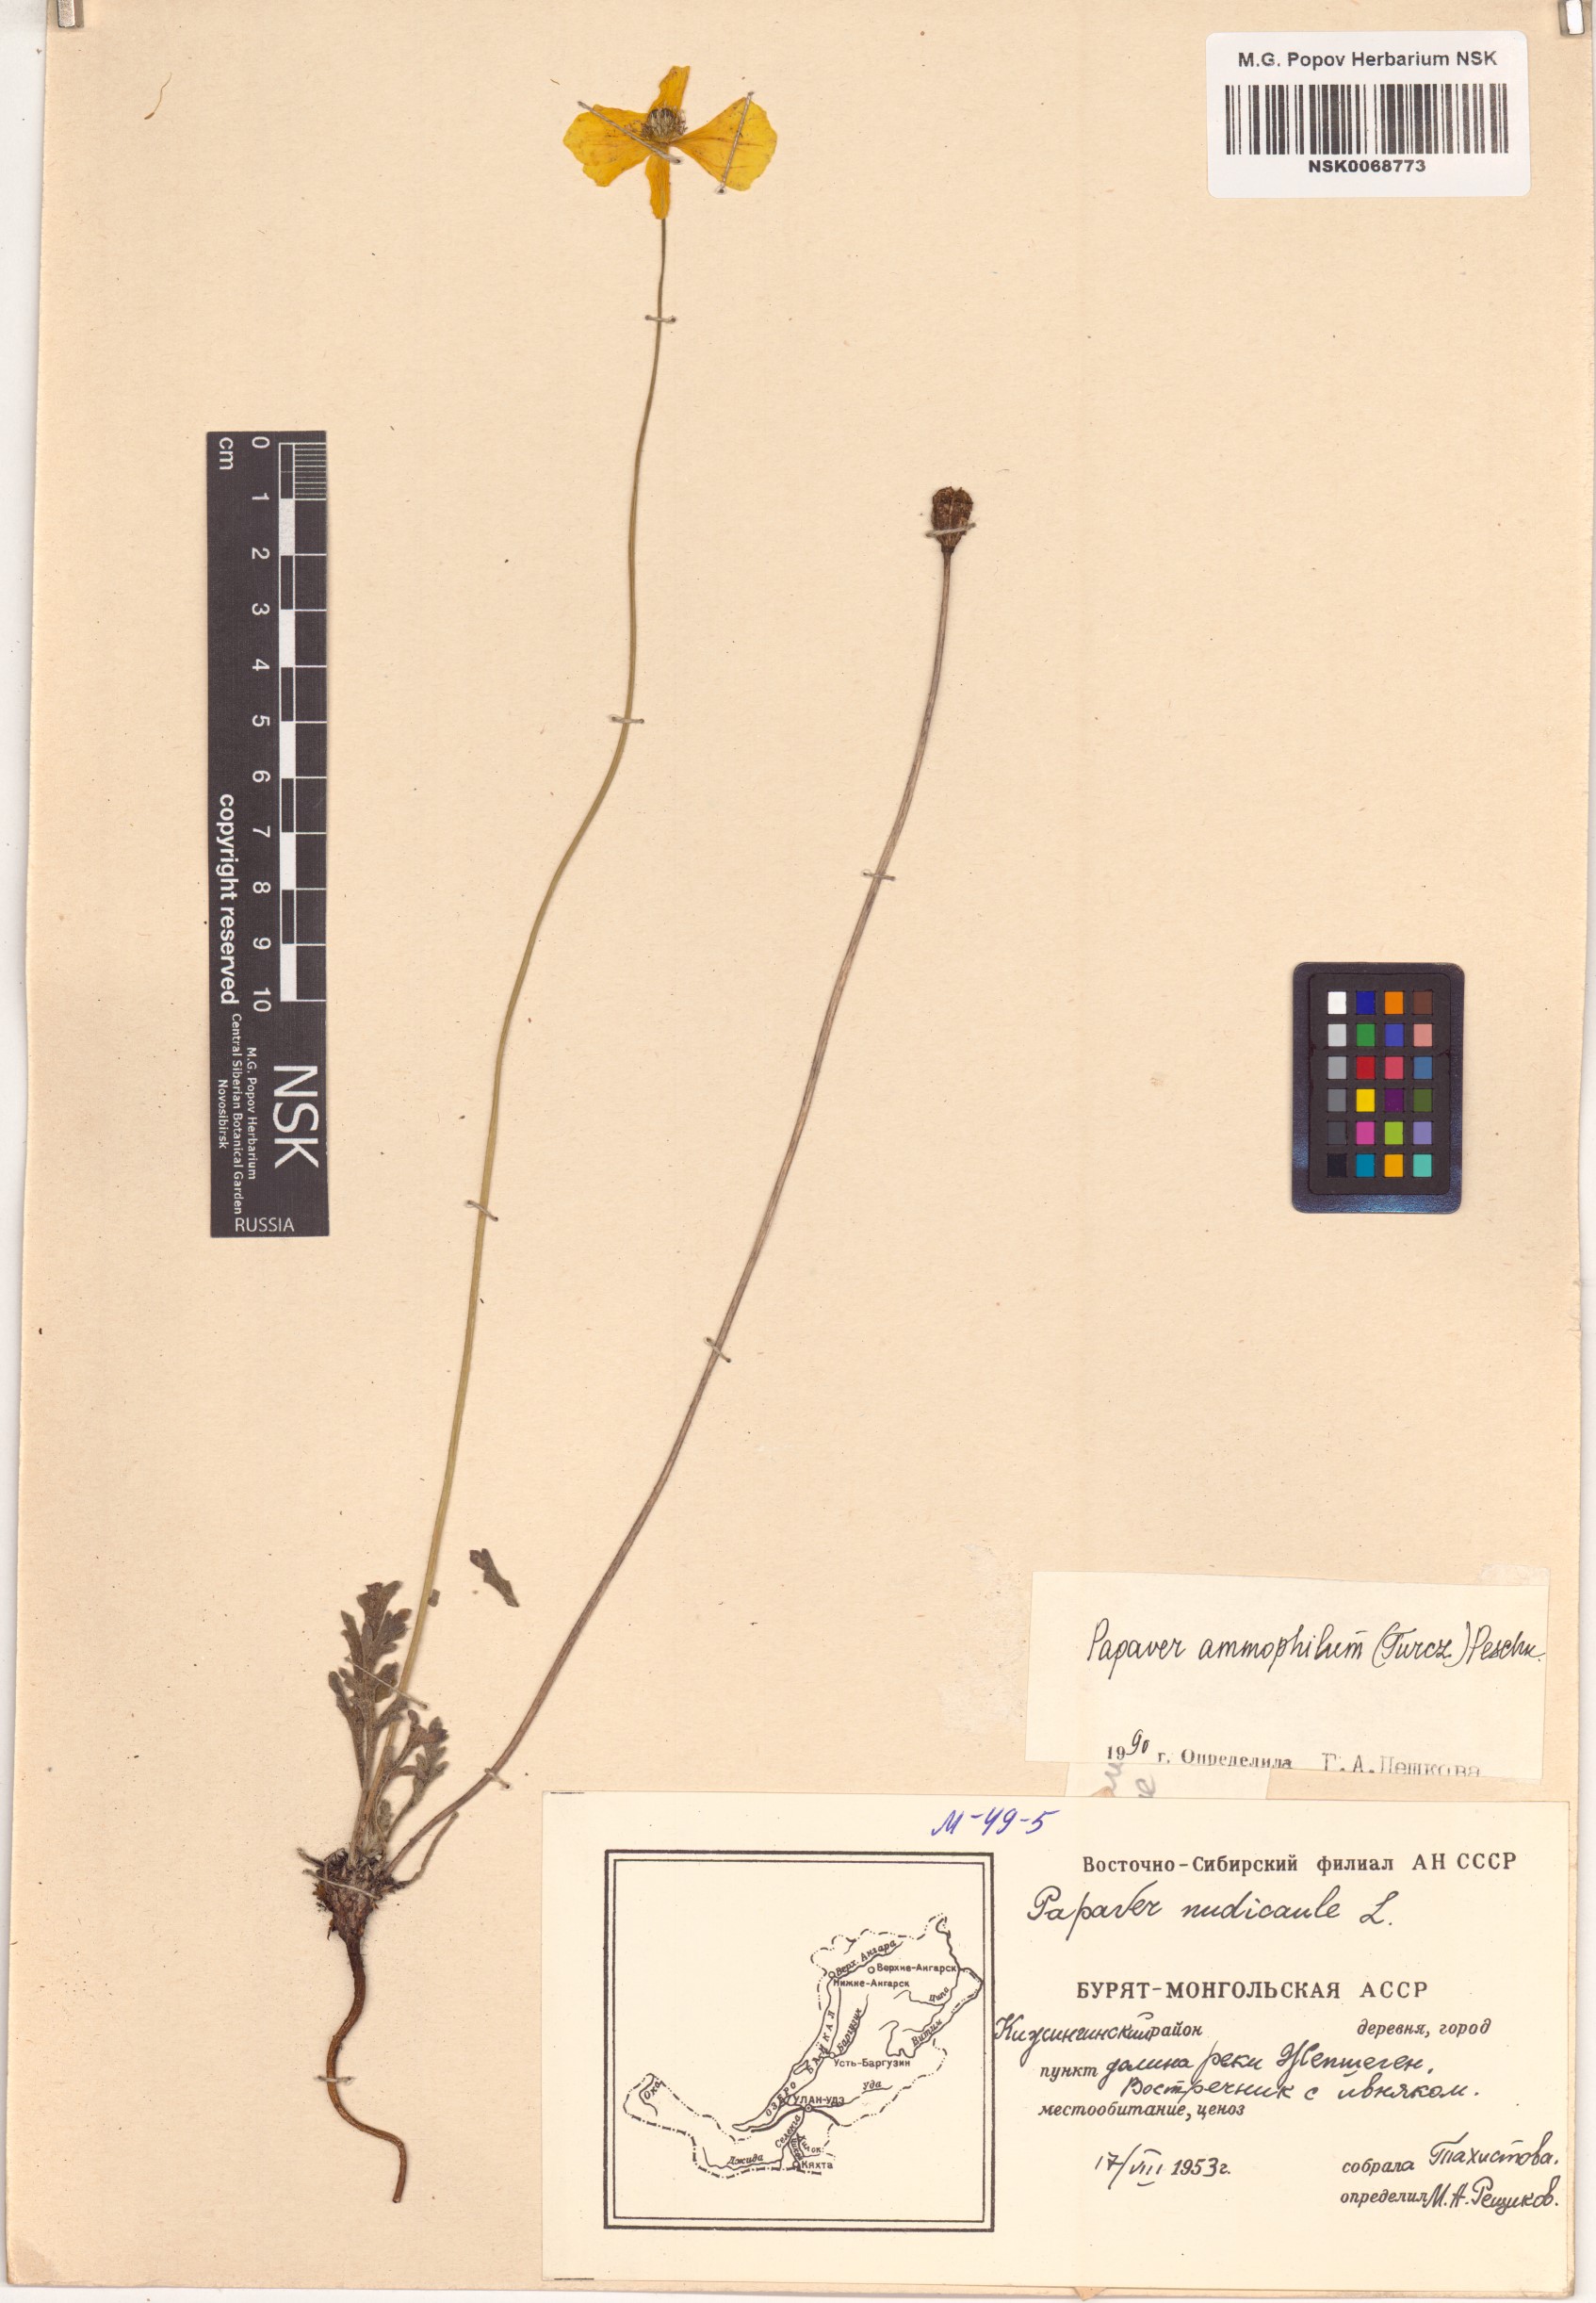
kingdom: Plantae
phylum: Tracheophyta
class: Magnoliopsida
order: Ranunculales
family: Papaveraceae
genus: Papaver
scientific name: Papaver nudicaule
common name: Arctic poppy
